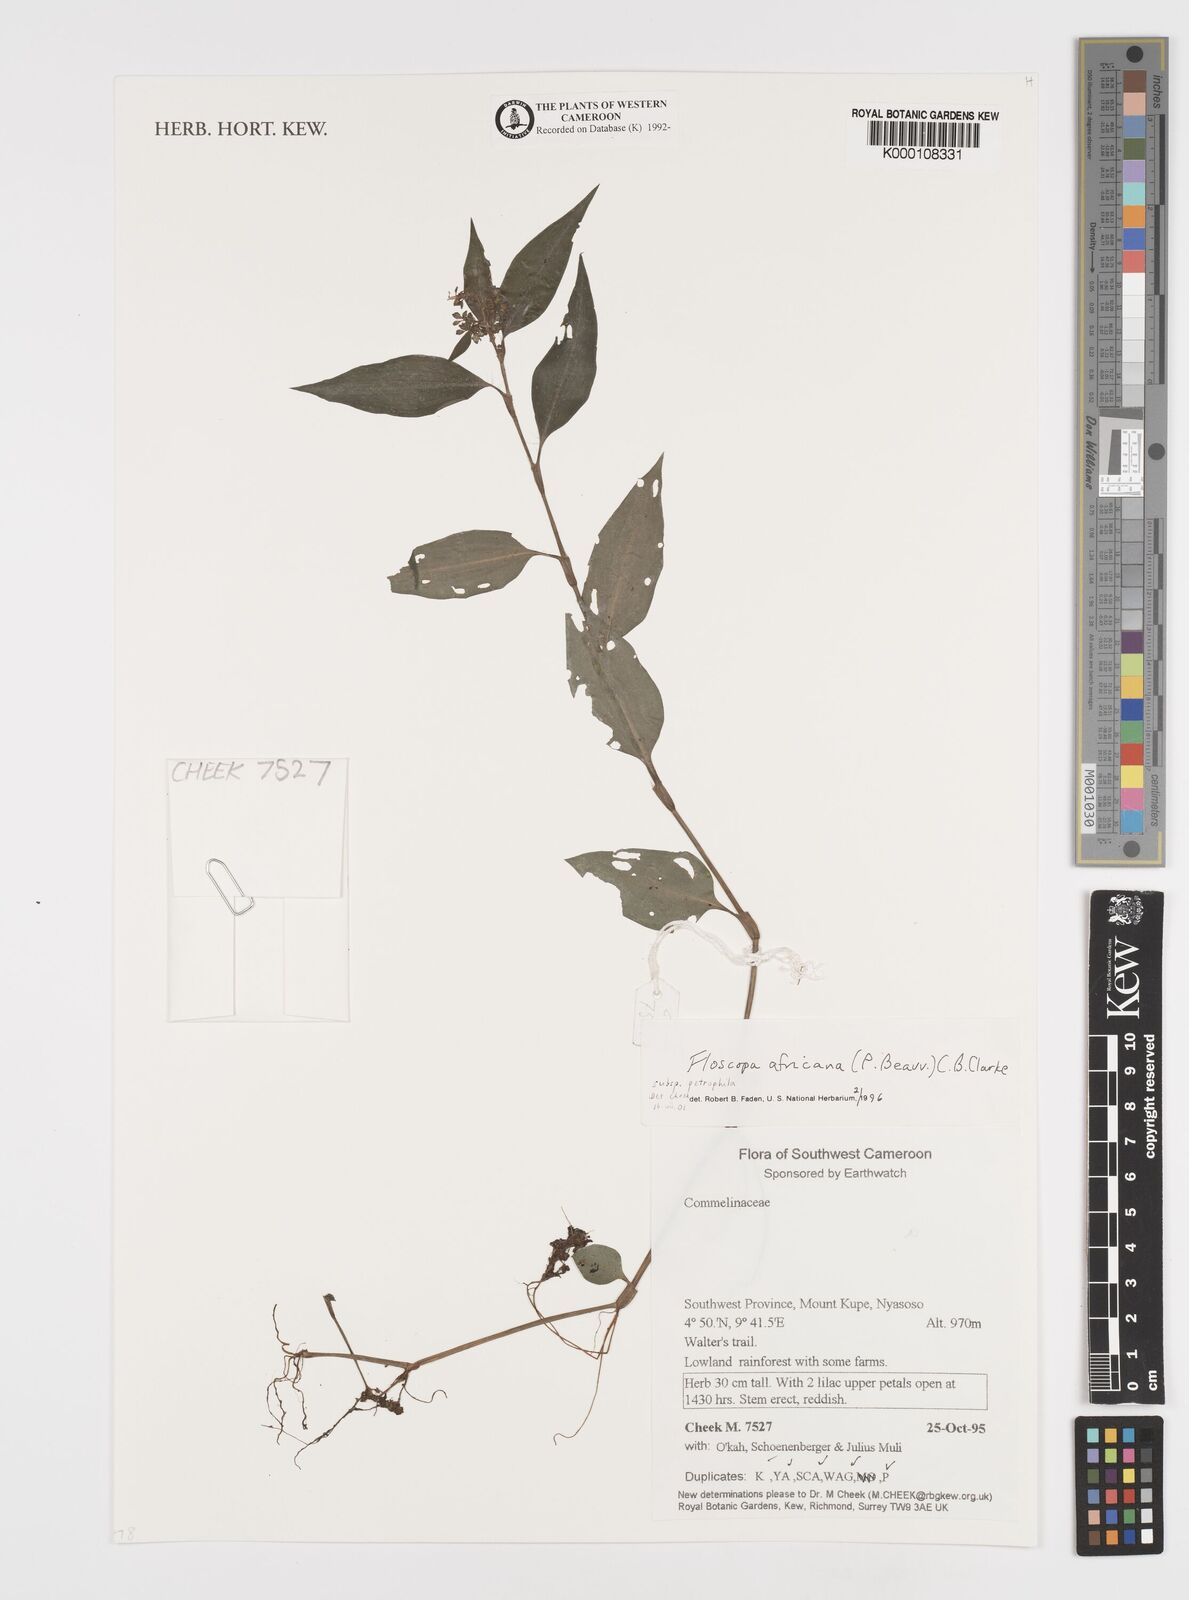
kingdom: Plantae
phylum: Tracheophyta
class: Liliopsida
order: Commelinales
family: Commelinaceae
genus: Floscopa
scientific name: Floscopa africana
